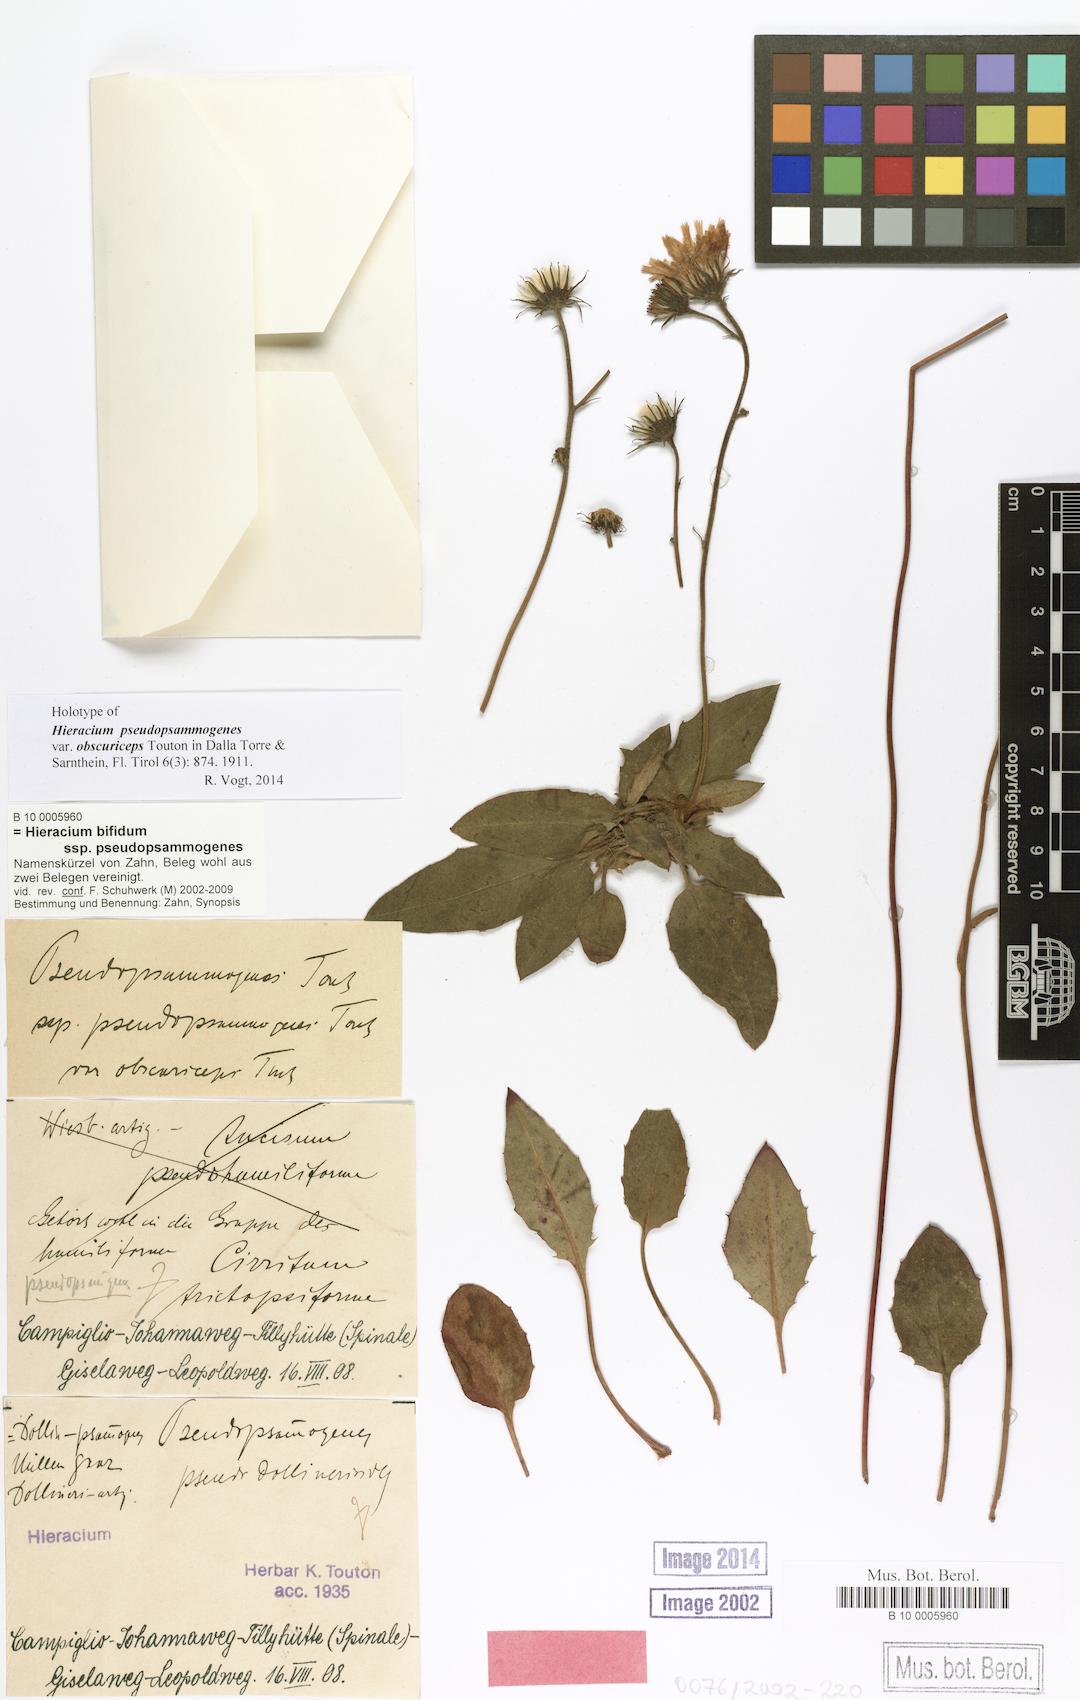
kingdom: Plantae
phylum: Tracheophyta
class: Magnoliopsida
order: Asterales
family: Asteraceae
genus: Hieracium
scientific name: Hieracium bifidum
